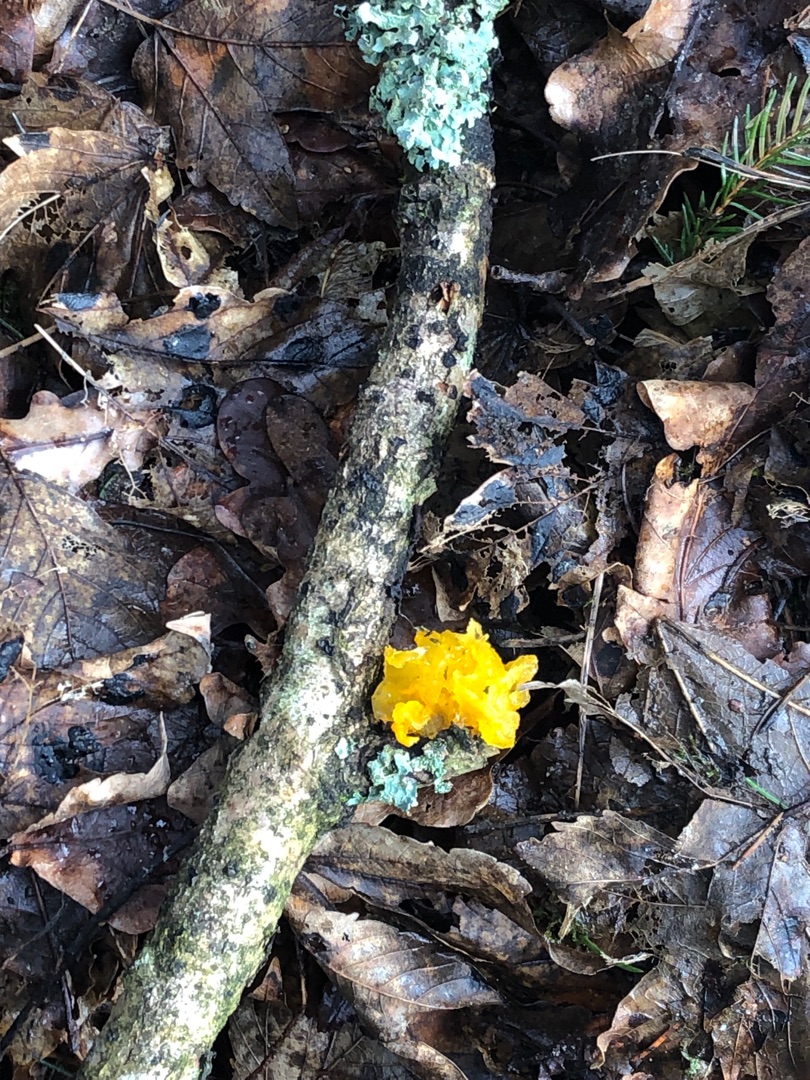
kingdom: Fungi
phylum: Basidiomycota
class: Tremellomycetes
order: Tremellales
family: Tremellaceae
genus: Tremella
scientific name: Tremella mesenterica
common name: Gul bævresvamp
